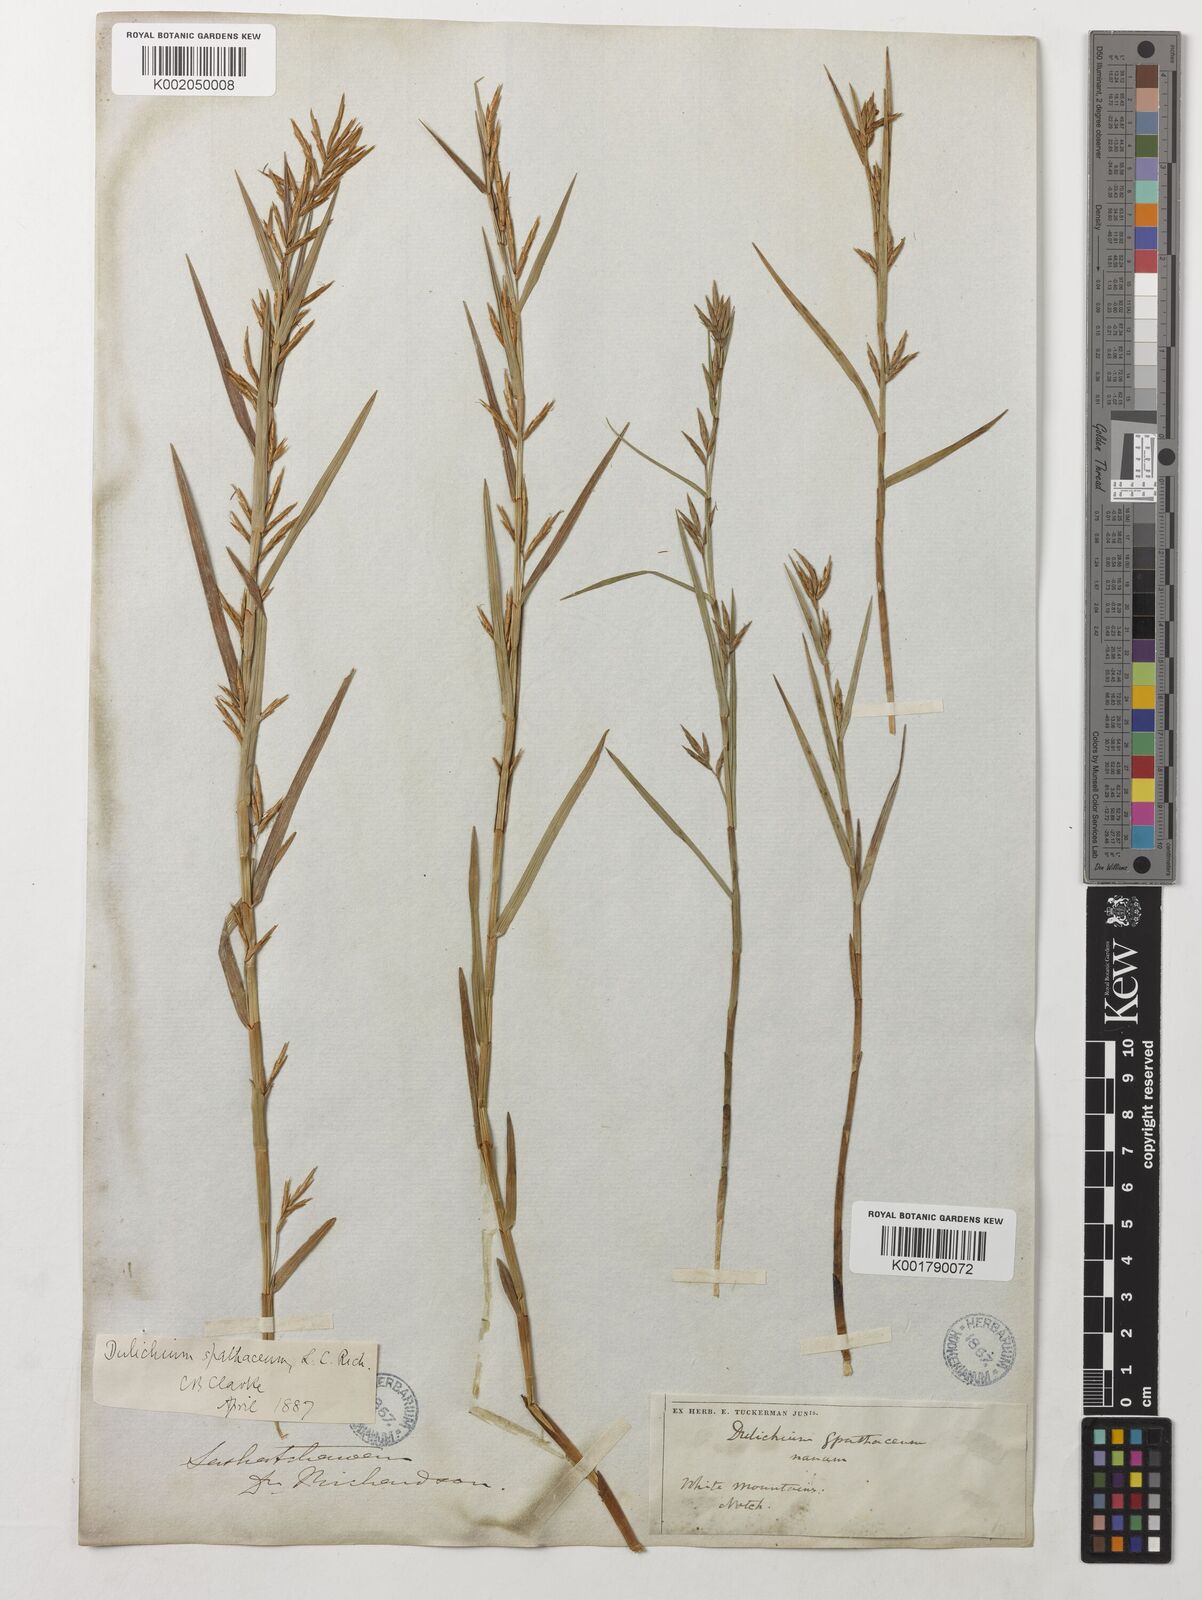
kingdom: Plantae
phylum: Tracheophyta
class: Liliopsida
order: Poales
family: Cyperaceae
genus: Dulichium
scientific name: Dulichium arundinaceum
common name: Three-way sedge
